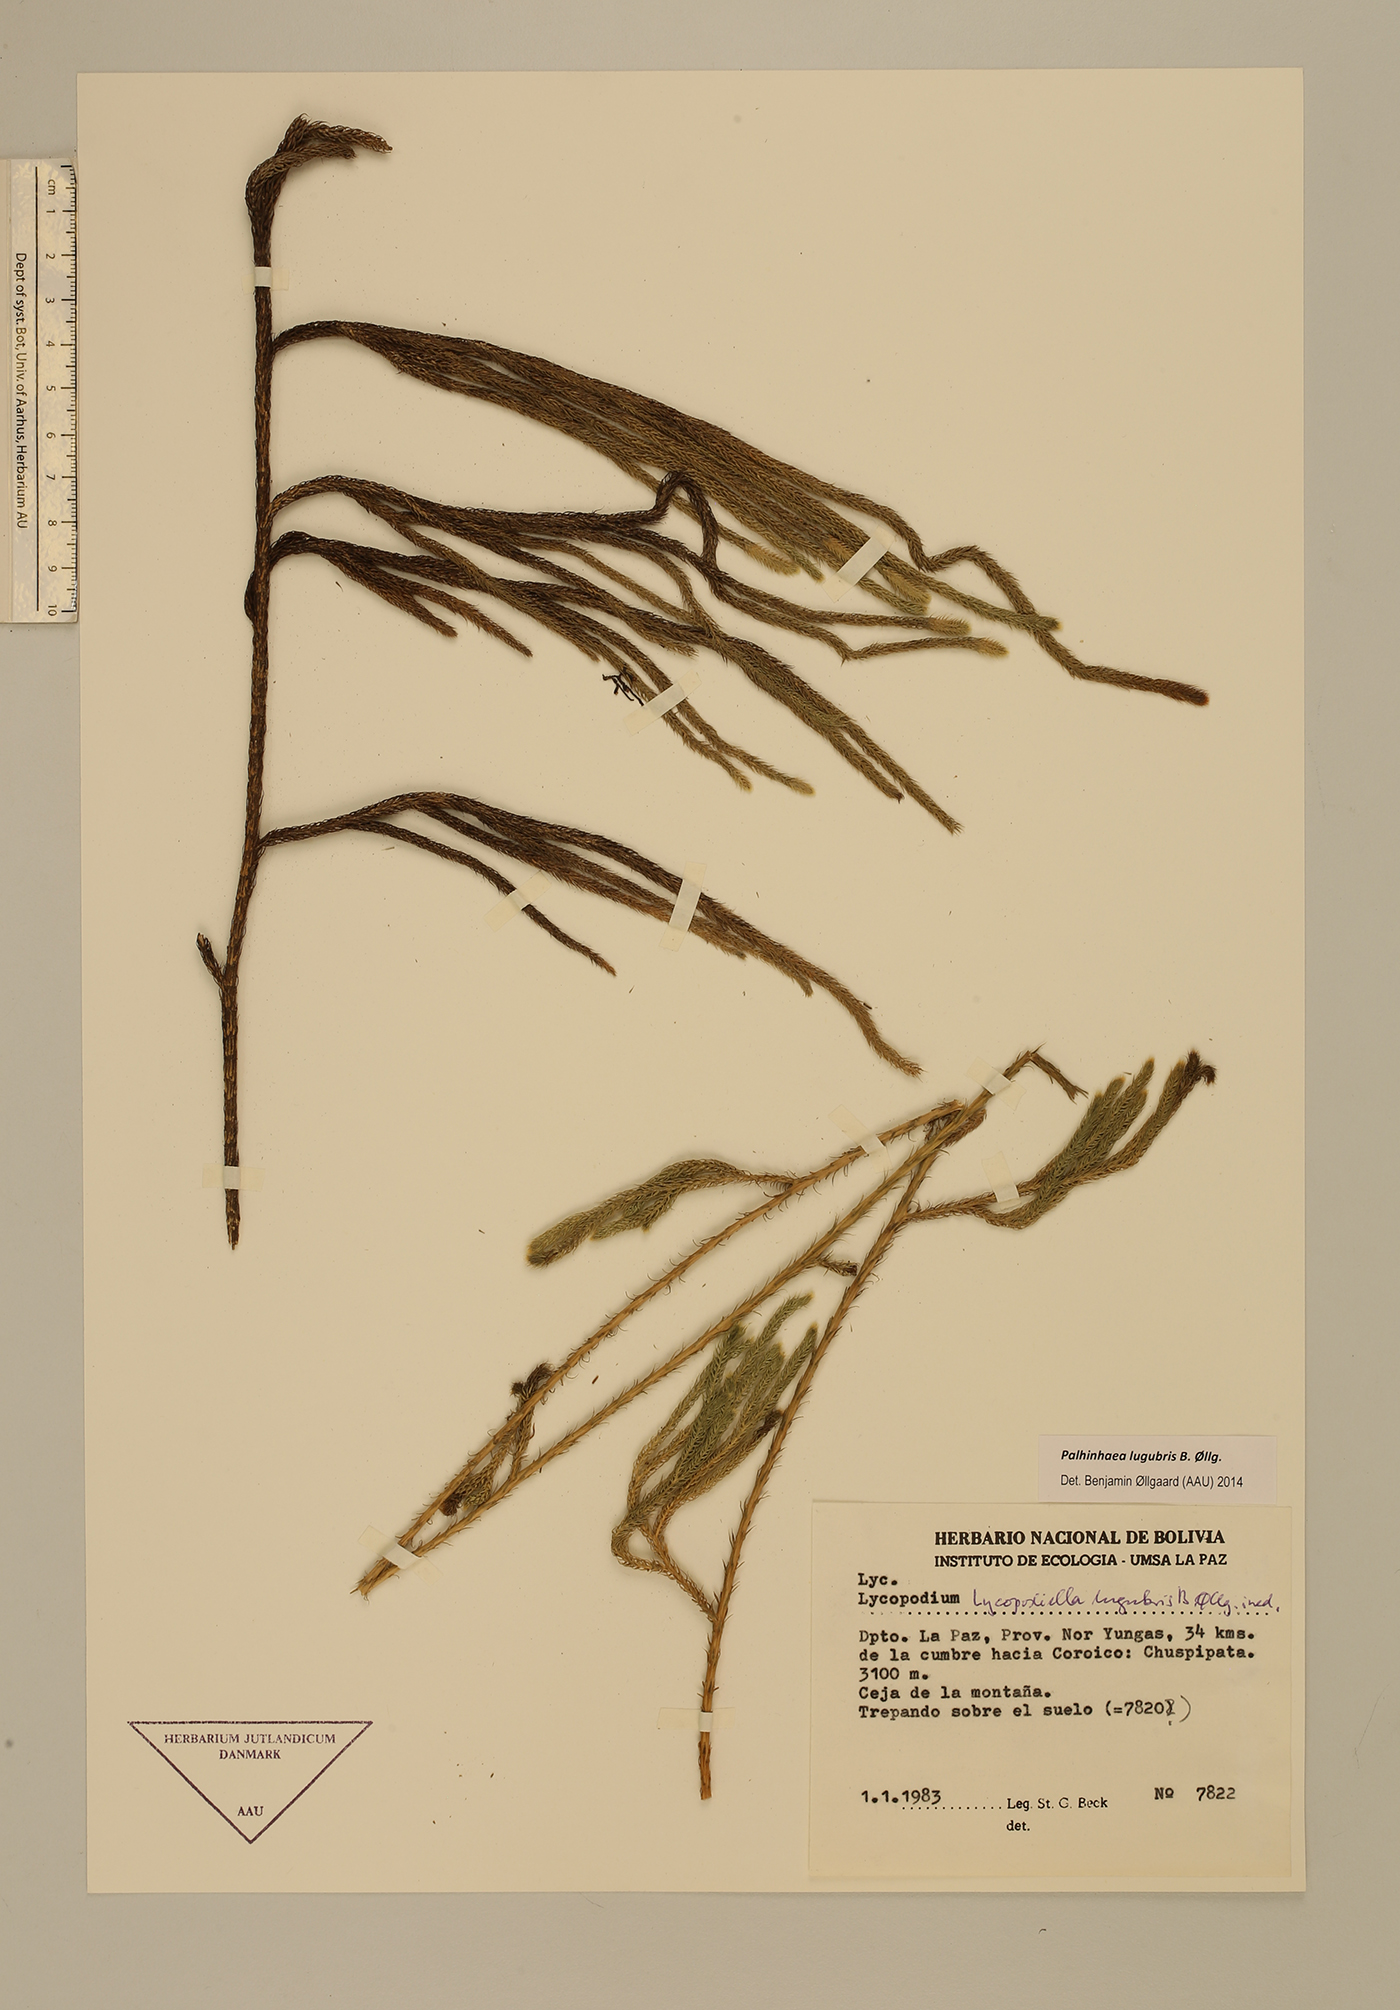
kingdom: Plantae
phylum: Tracheophyta
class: Lycopodiopsida
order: Lycopodiales
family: Lycopodiaceae
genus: Palhinhaea
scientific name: Palhinhaea lugubris
